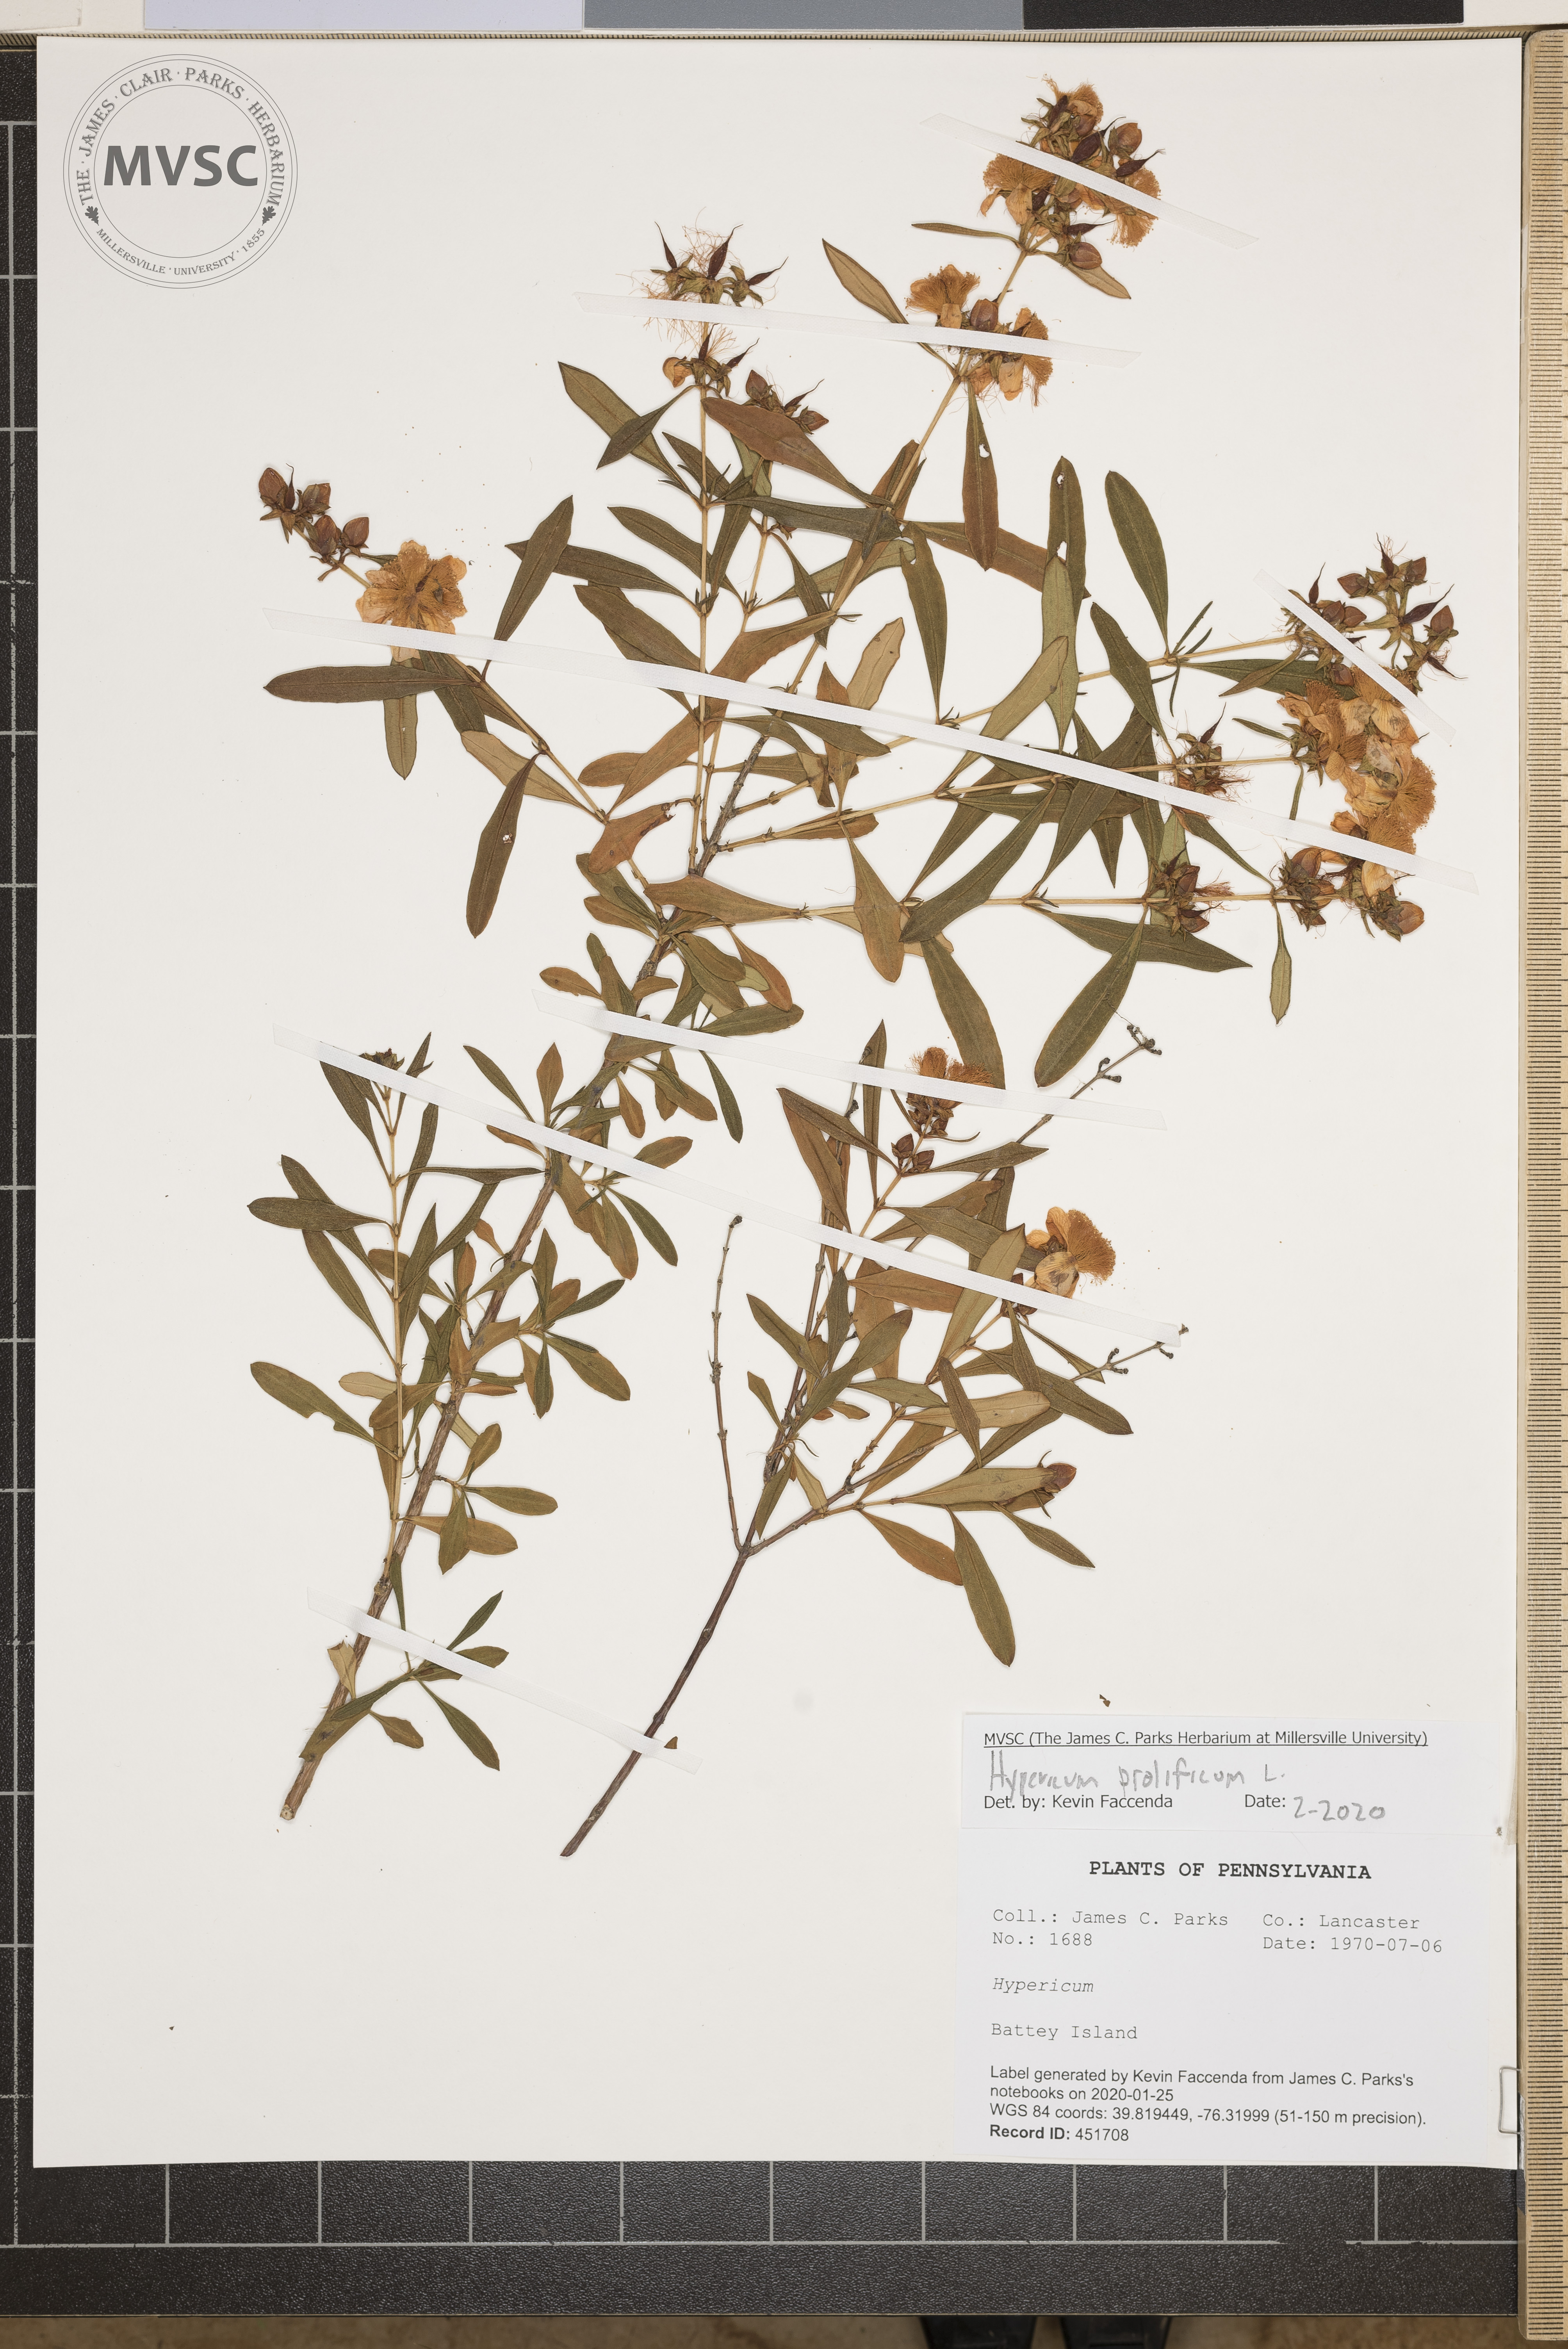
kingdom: Plantae
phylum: Tracheophyta
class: Magnoliopsida
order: Malpighiales
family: Hypericaceae
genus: Hypericum
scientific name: Hypericum prolificum
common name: Shrubby st. john's-wort
